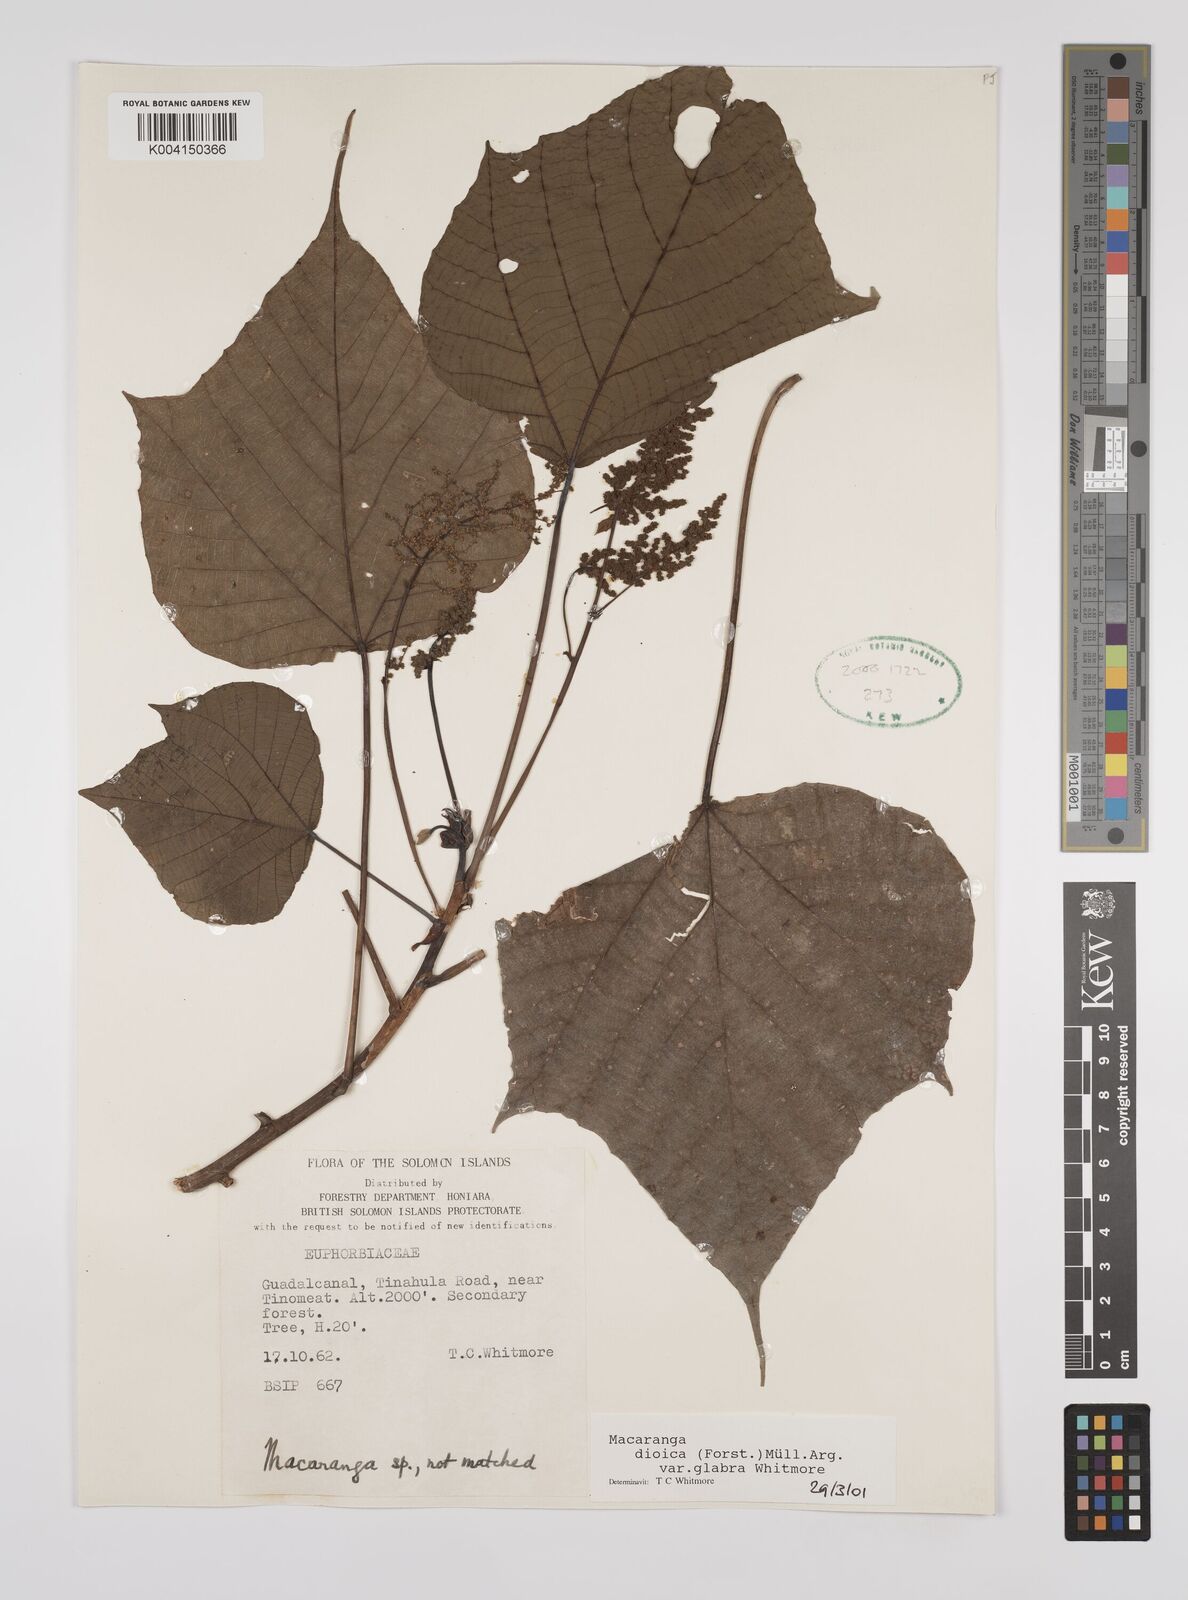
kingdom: Plantae
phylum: Tracheophyta
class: Magnoliopsida
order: Malpighiales
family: Euphorbiaceae
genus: Macaranga
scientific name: Macaranga dioica
